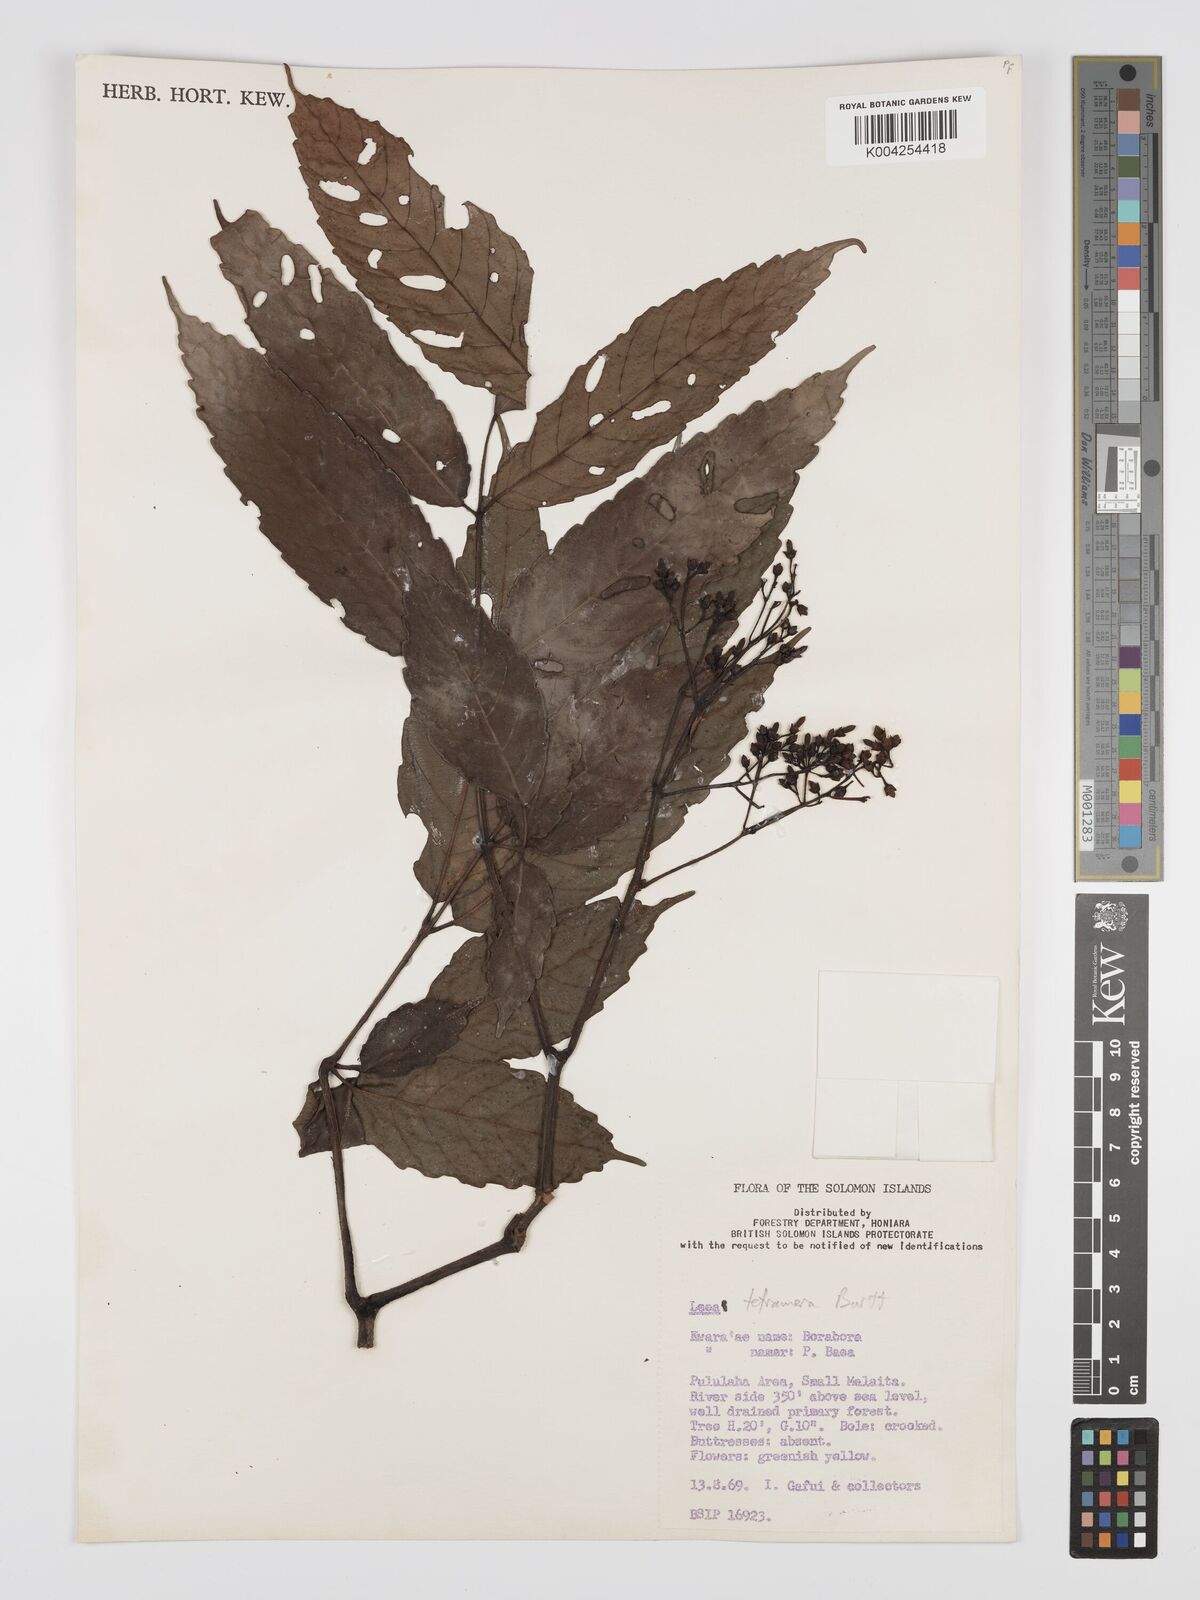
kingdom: Plantae
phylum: Tracheophyta
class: Magnoliopsida
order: Vitales
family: Vitaceae
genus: Leea
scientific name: Leea tetramera
